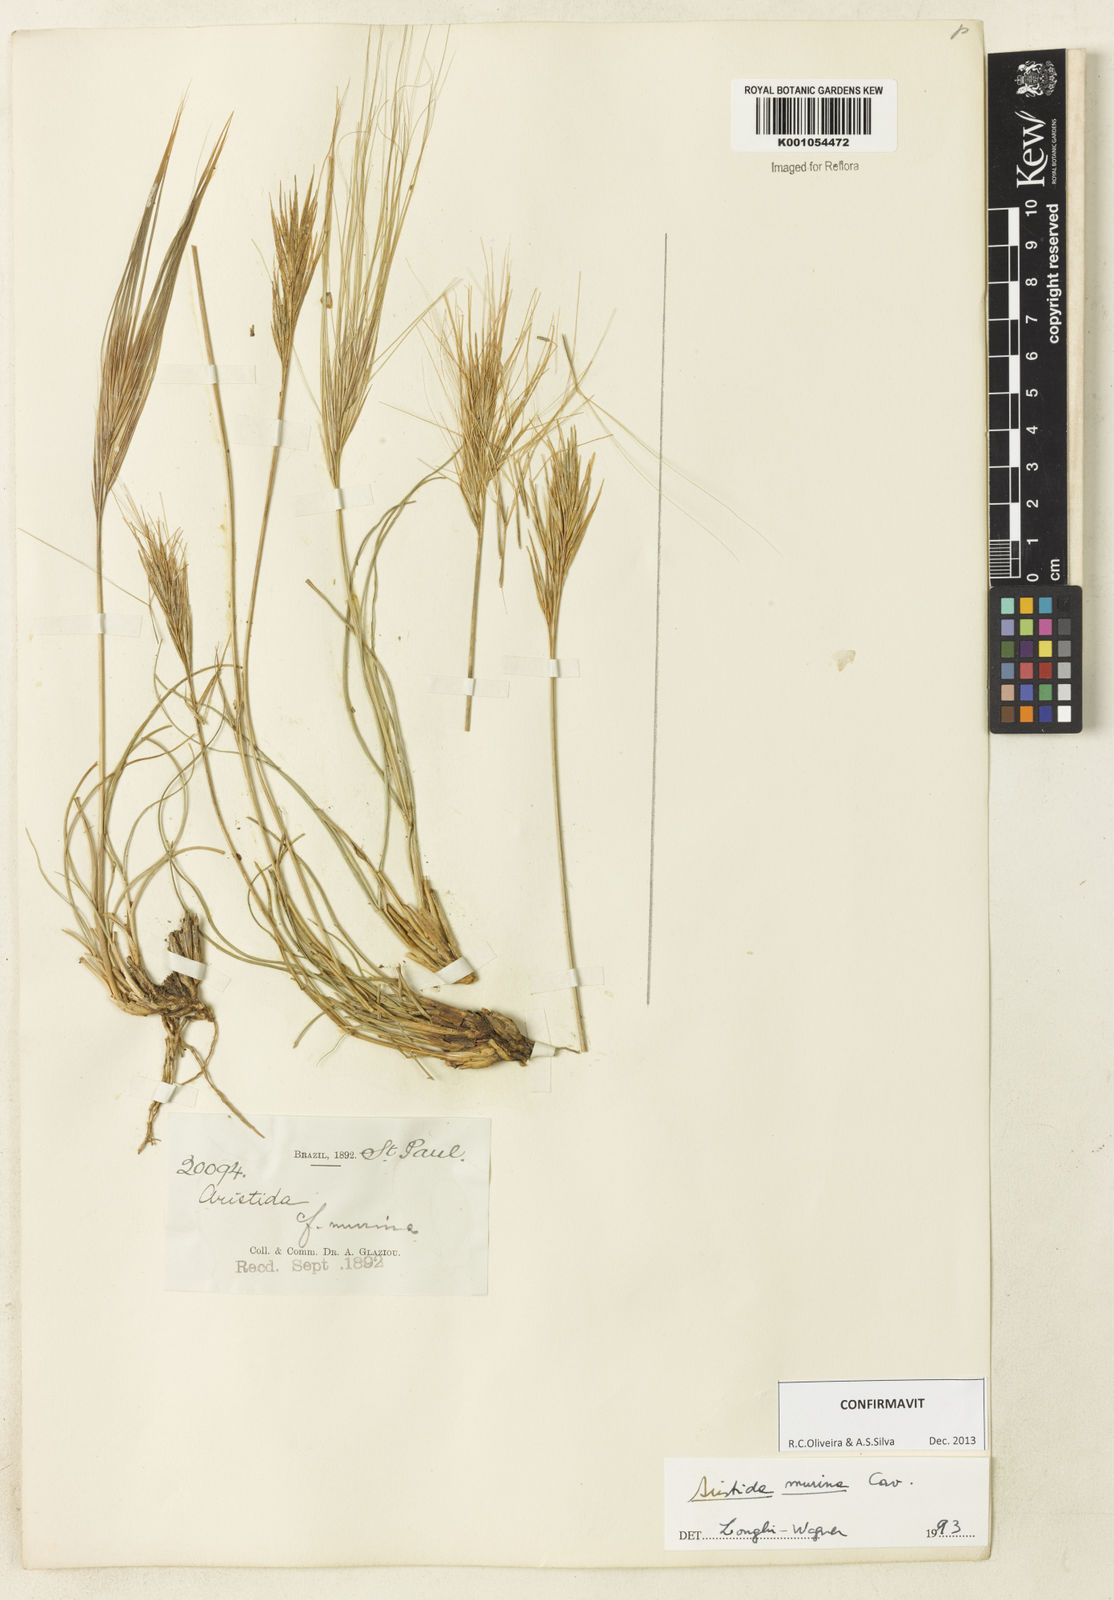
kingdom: Plantae
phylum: Tracheophyta
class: Liliopsida
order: Poales
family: Poaceae
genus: Aristida
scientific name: Aristida murina
